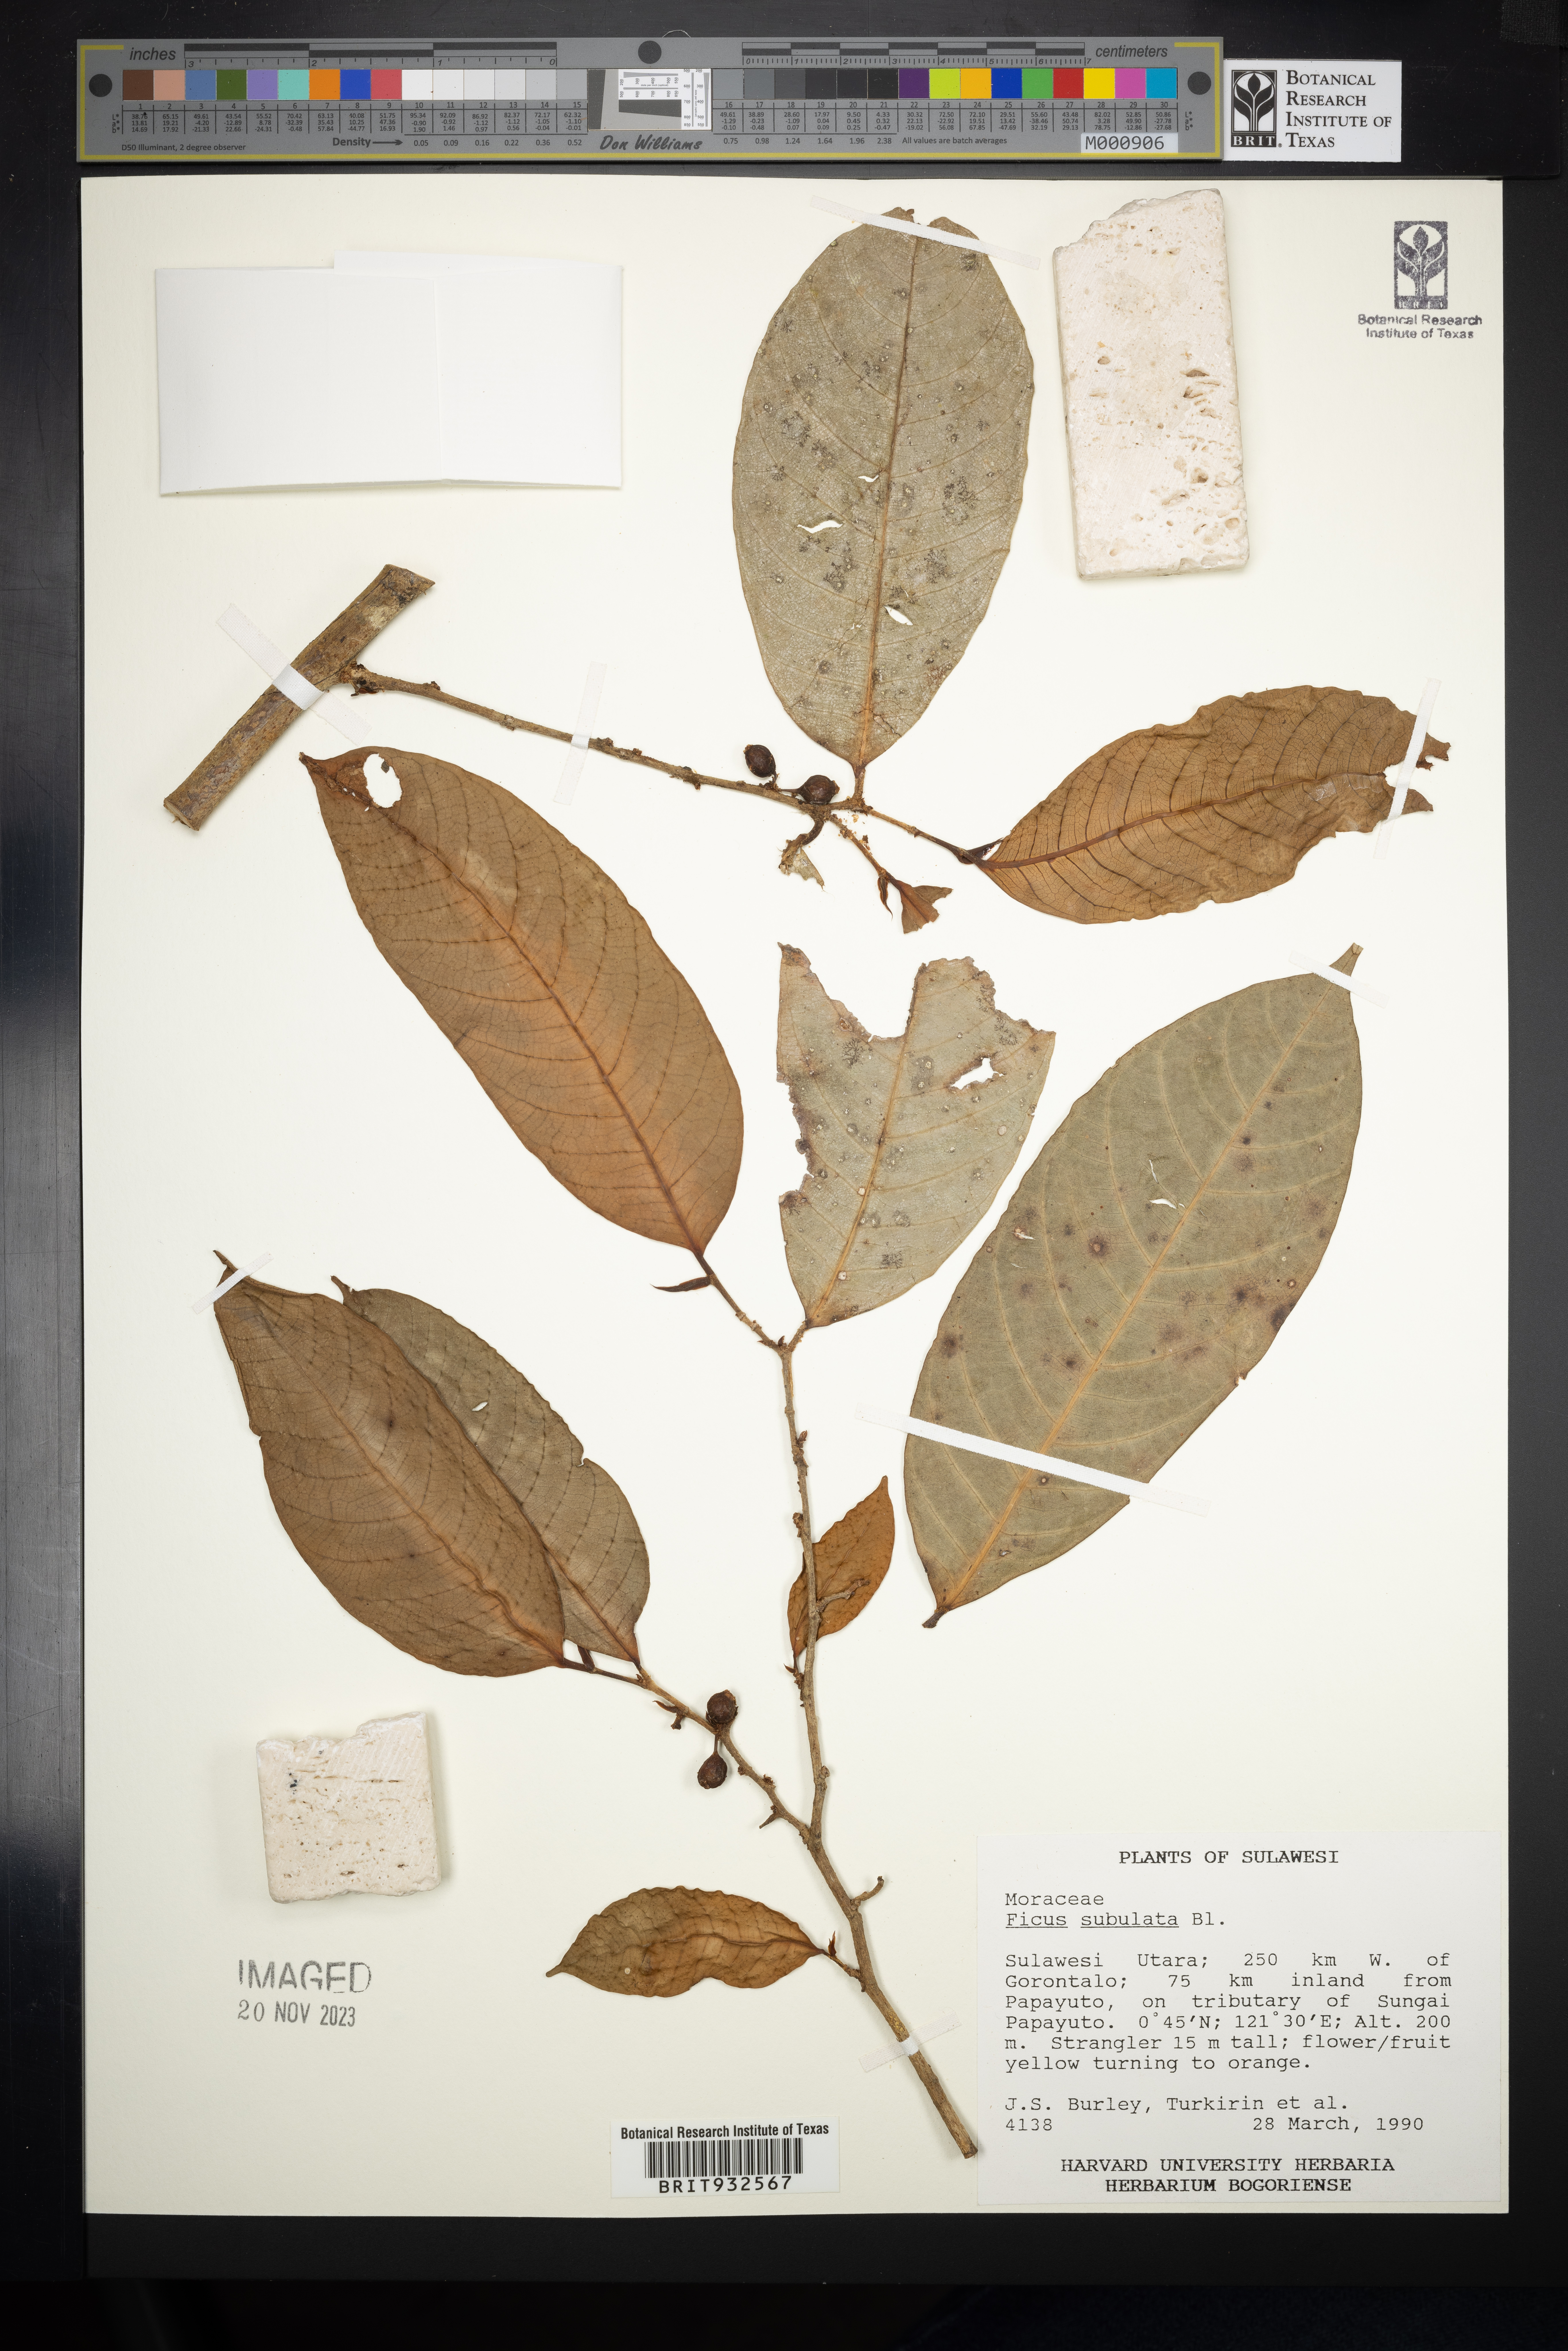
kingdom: Plantae
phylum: Tracheophyta
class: Magnoliopsida
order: Rosales
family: Moraceae
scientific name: Moraceae
